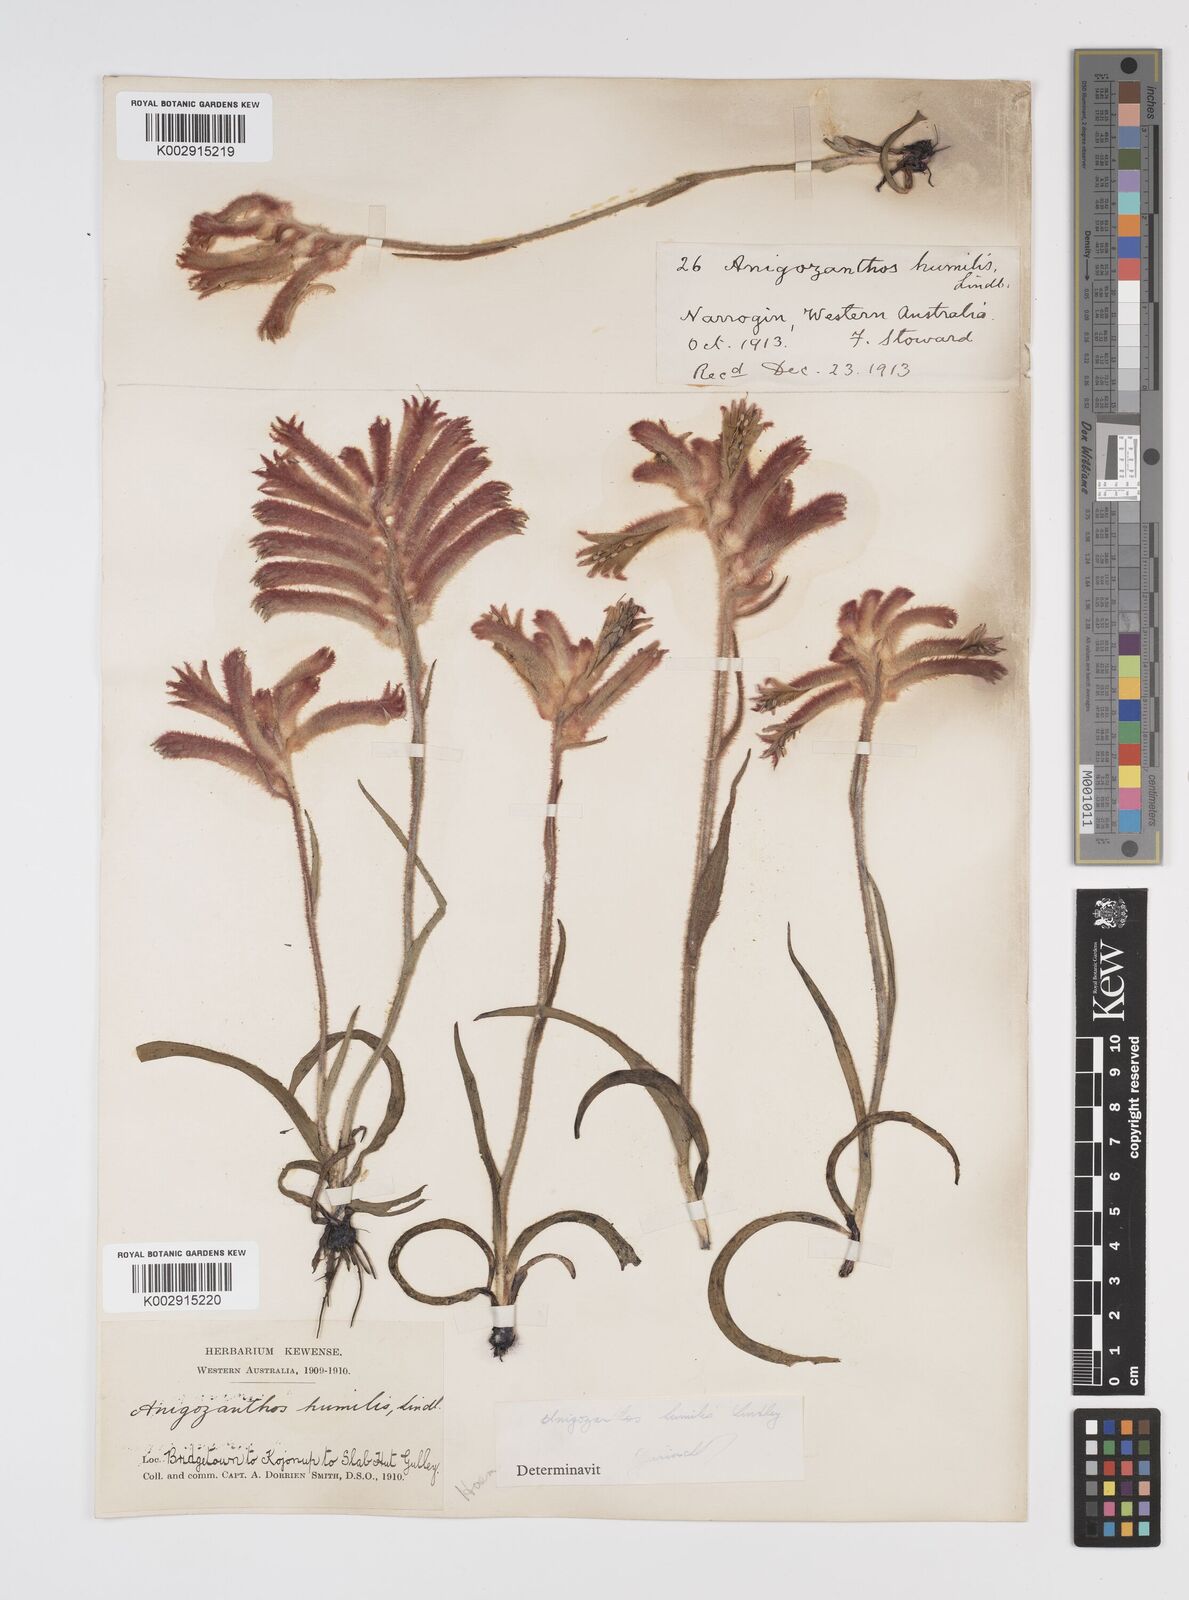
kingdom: Plantae
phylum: Tracheophyta
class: Liliopsida
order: Commelinales
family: Haemodoraceae
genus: Anigozanthos
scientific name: Anigozanthos humilis
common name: Cat's-paw
